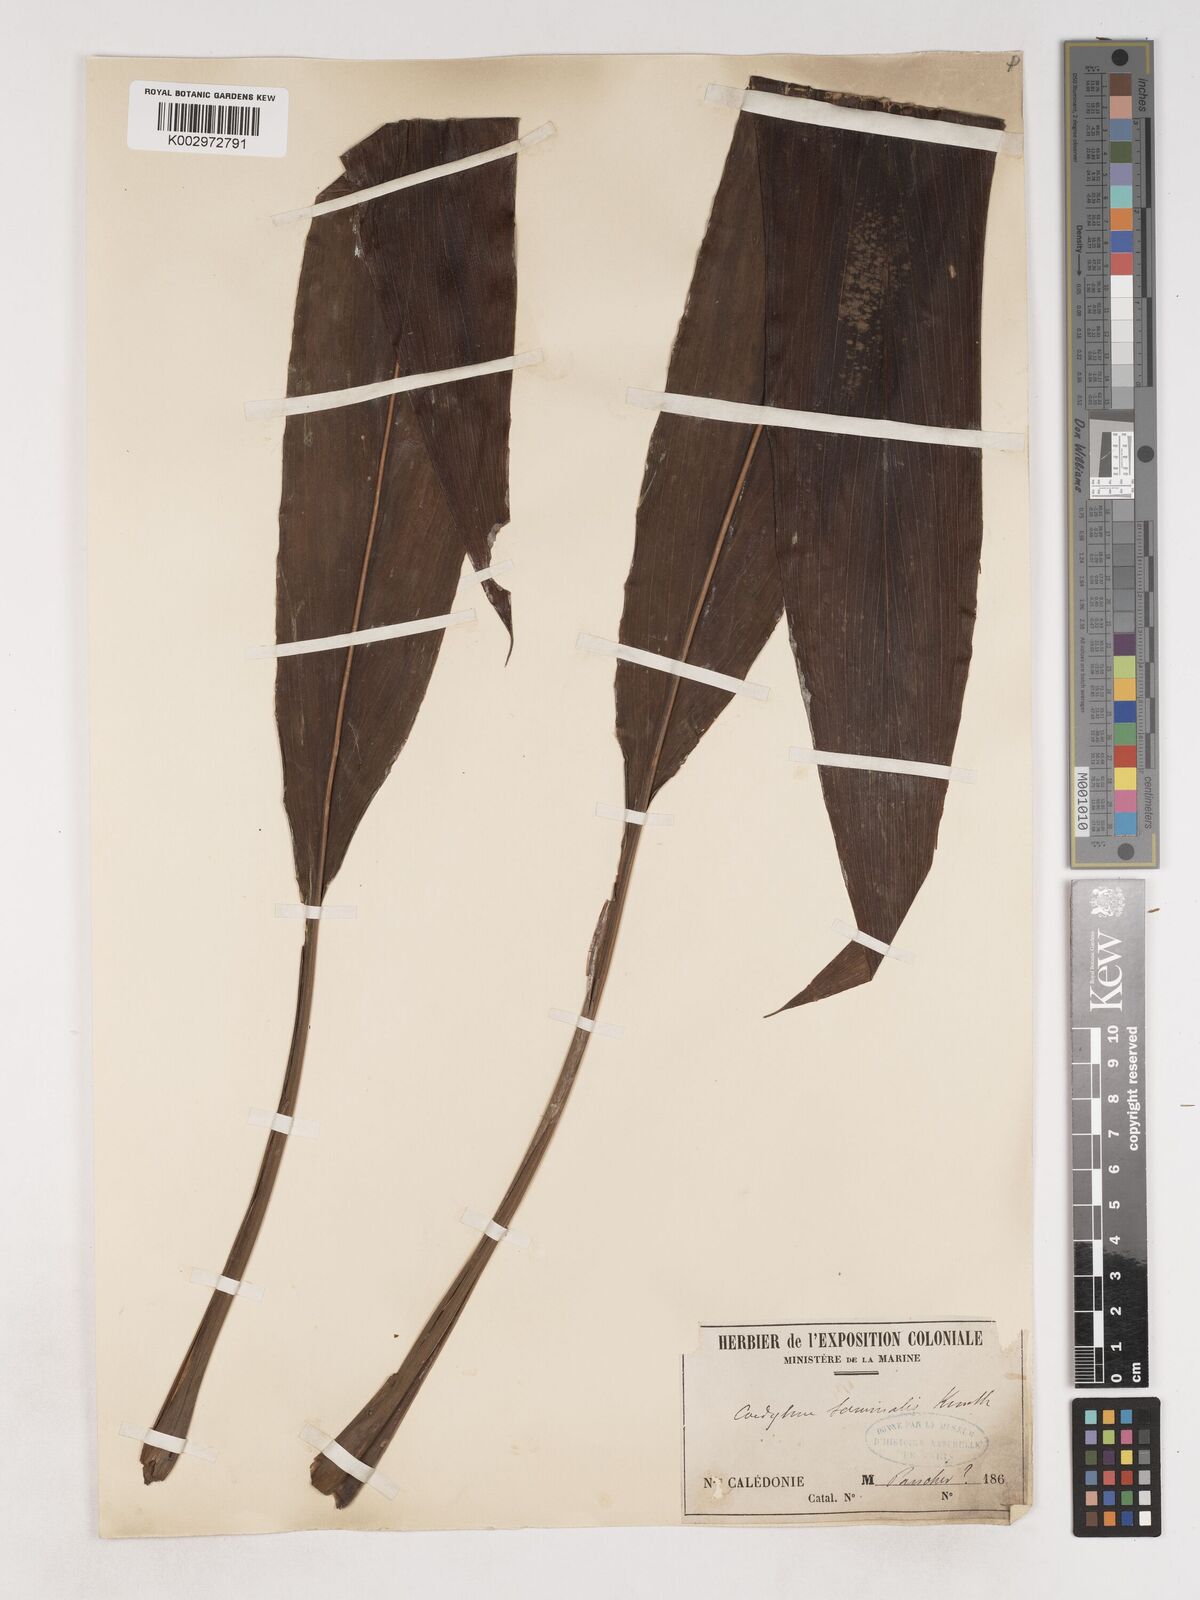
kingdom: Plantae
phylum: Tracheophyta
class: Liliopsida
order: Asparagales
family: Asparagaceae
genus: Cordyline
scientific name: Cordyline fruticosa
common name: Good-luck-plant
